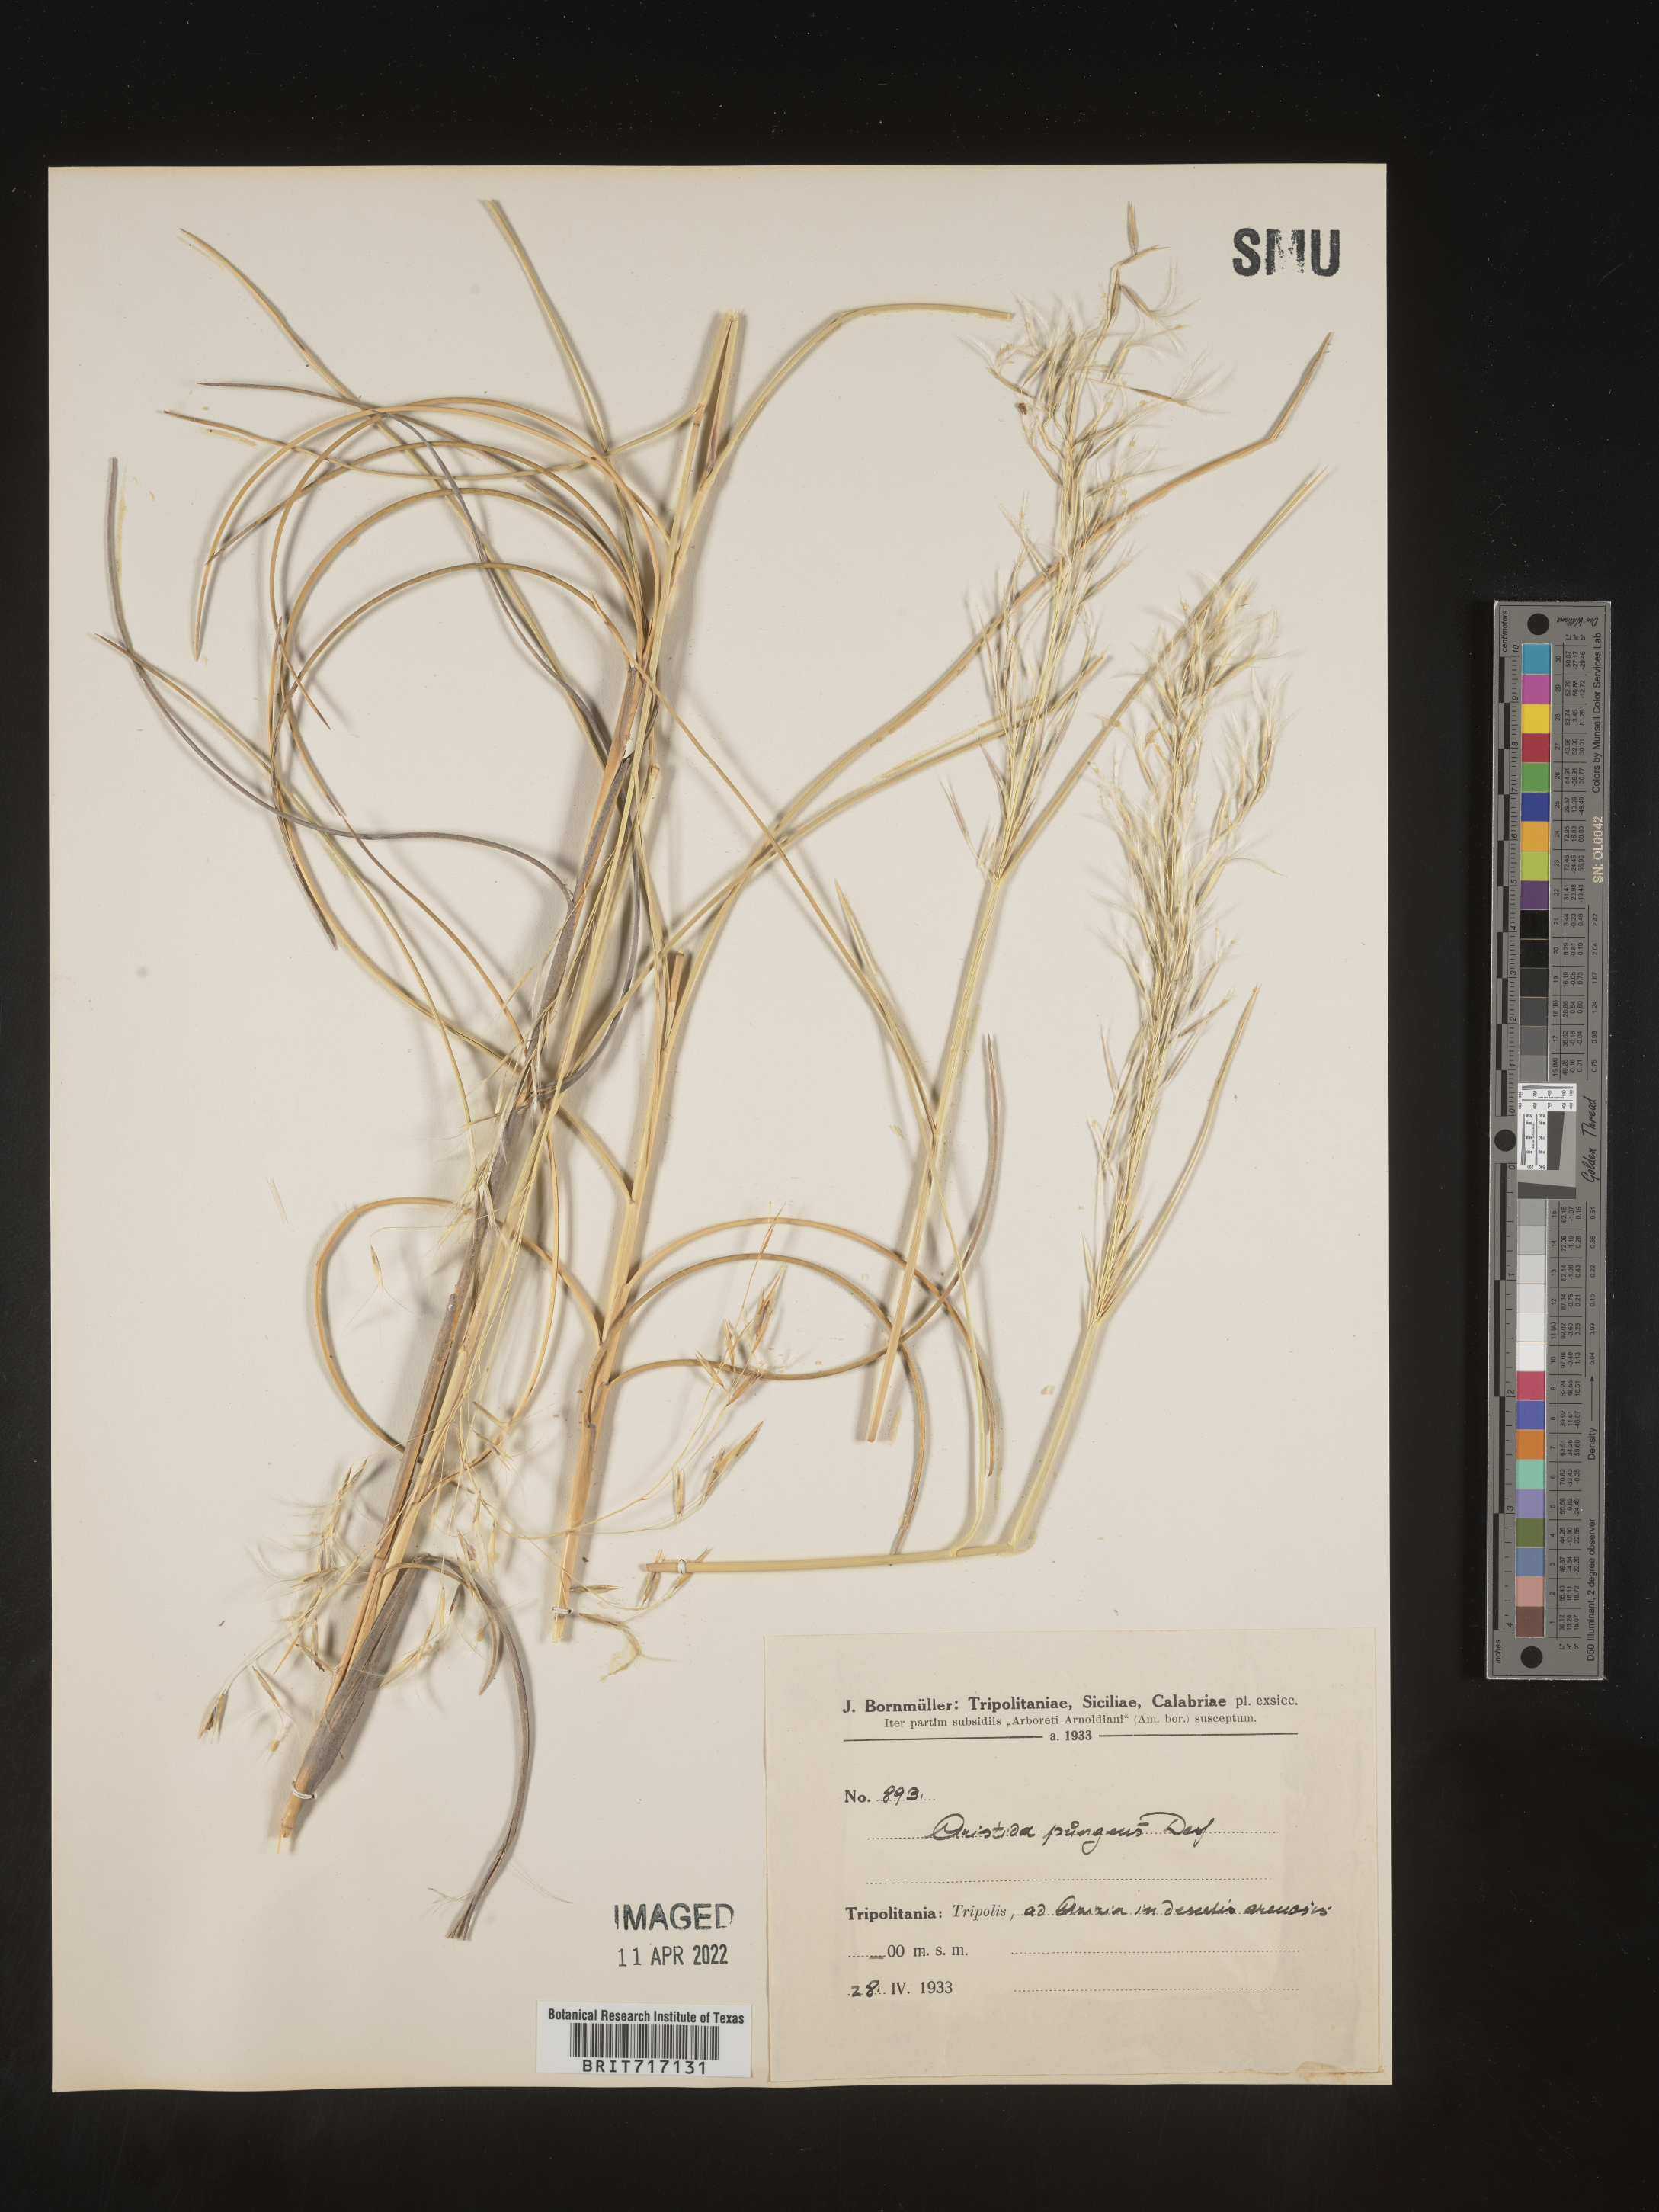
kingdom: Plantae
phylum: Tracheophyta
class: Liliopsida
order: Poales
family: Poaceae
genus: Aristida
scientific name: Aristida
